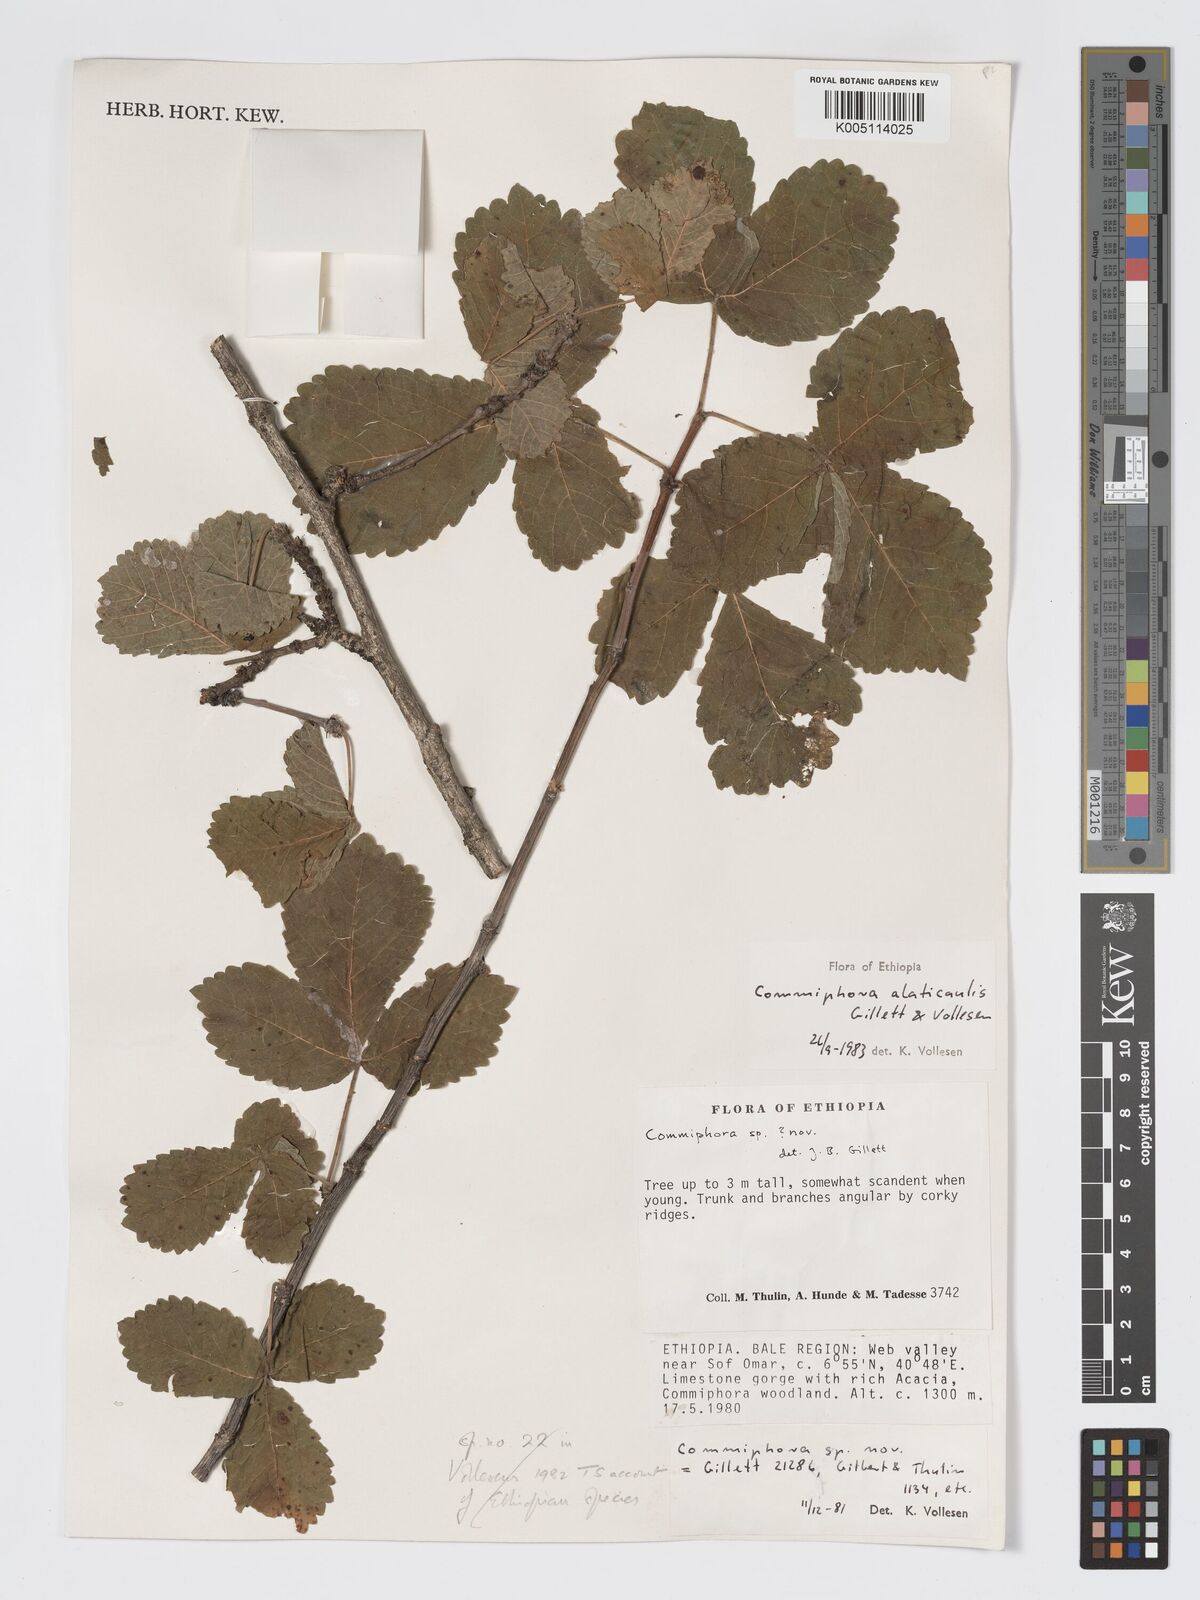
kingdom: Plantae
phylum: Tracheophyta
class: Magnoliopsida
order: Sapindales
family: Burseraceae
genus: Commiphora
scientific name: Commiphora alaticaulis
